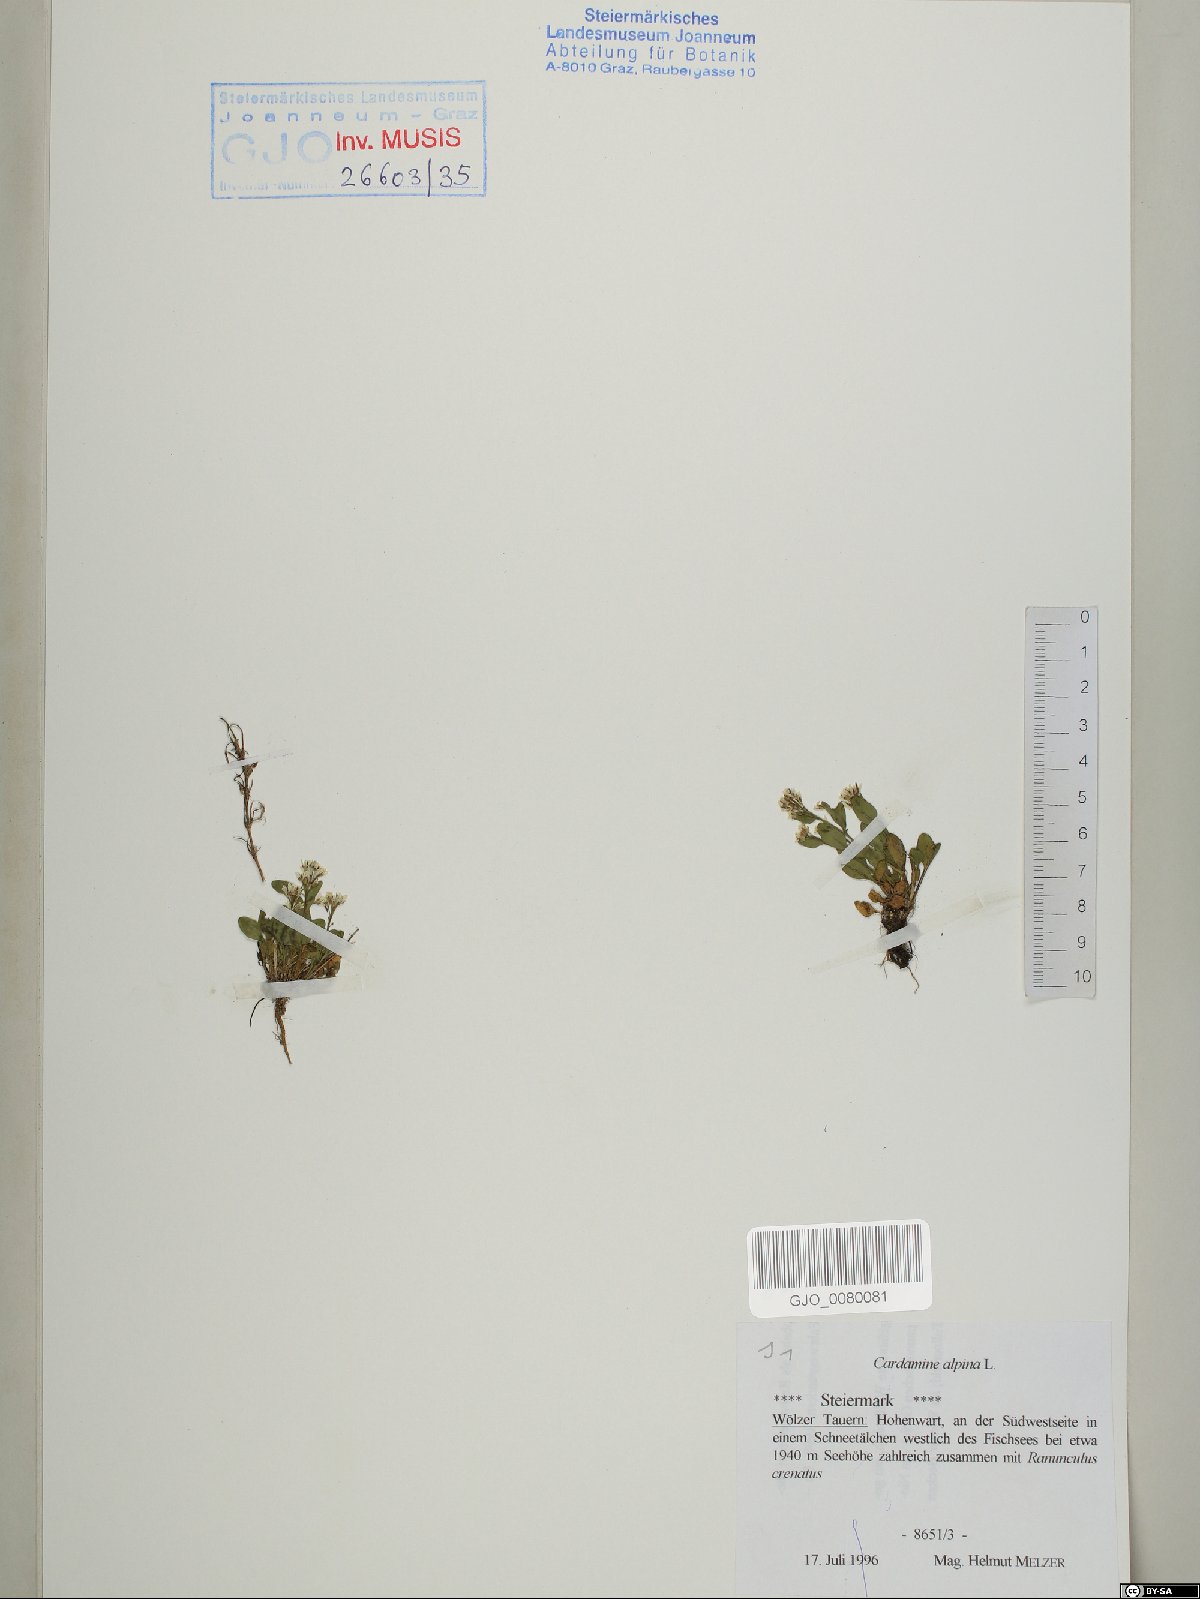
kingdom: Plantae
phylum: Tracheophyta
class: Magnoliopsida
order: Brassicales
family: Brassicaceae
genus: Cardamine
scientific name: Cardamine bellidifolia
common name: Alpine bittercress
